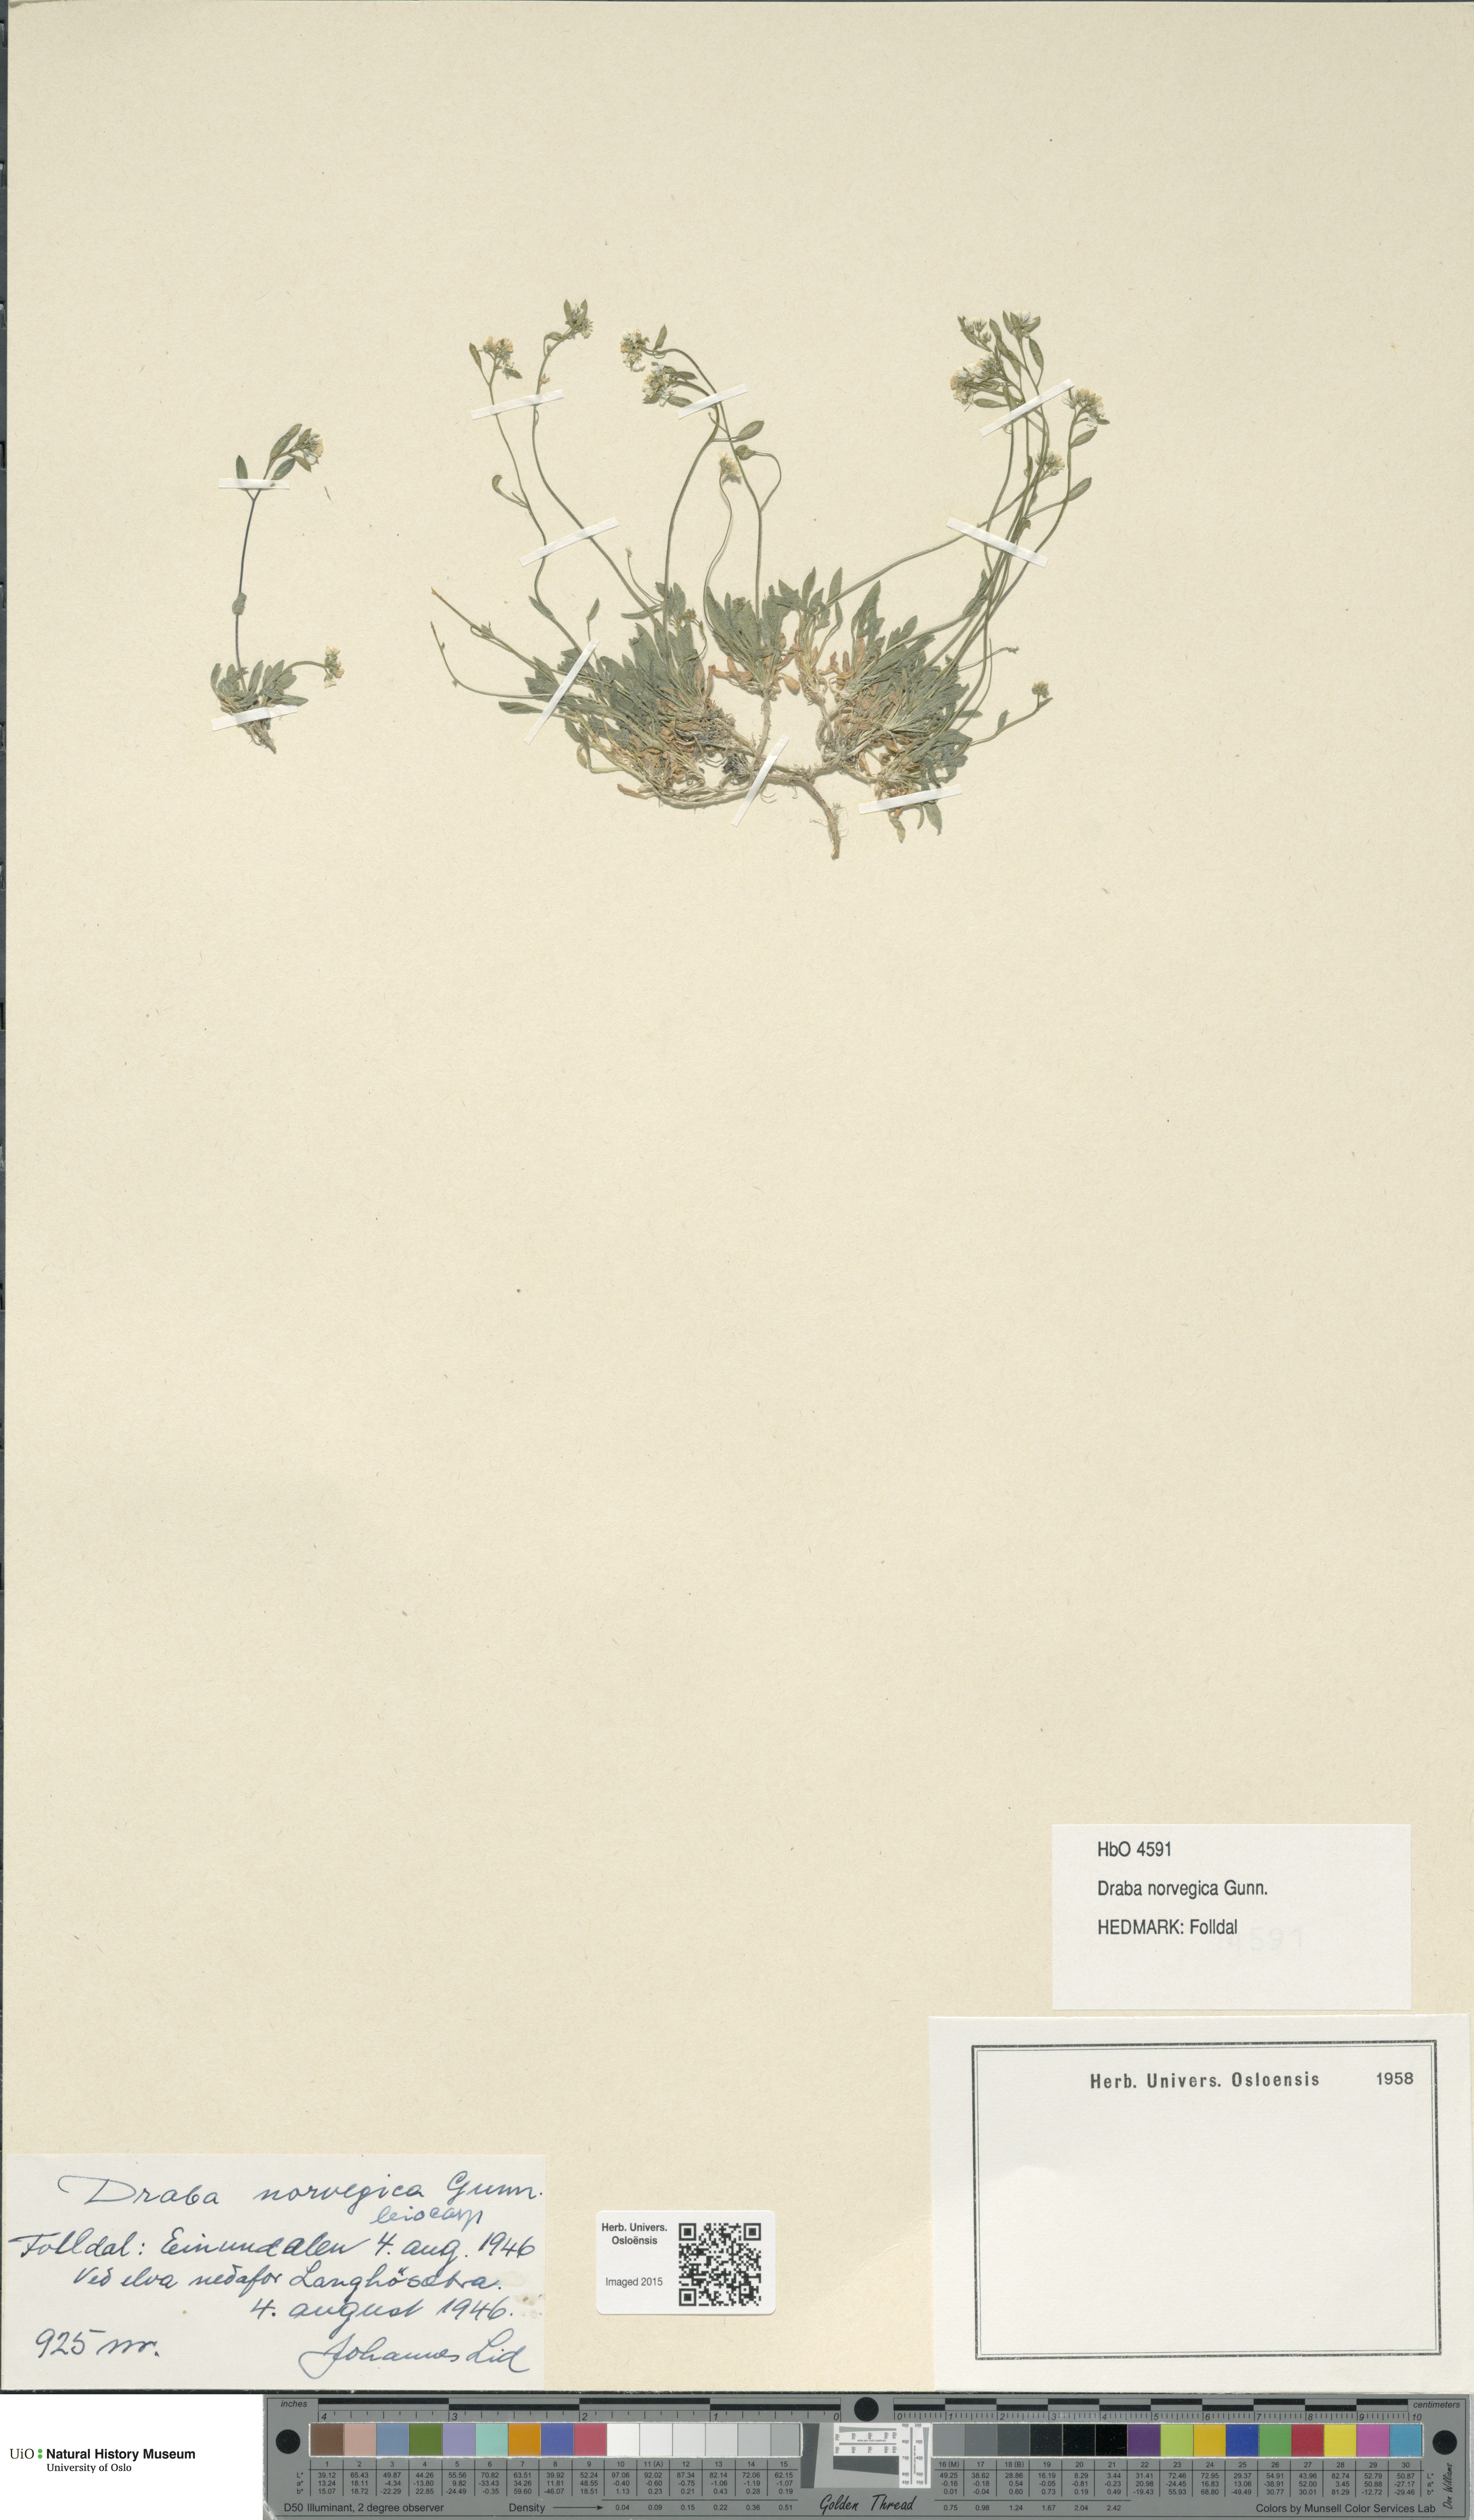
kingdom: Plantae
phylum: Tracheophyta
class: Magnoliopsida
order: Brassicales
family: Brassicaceae
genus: Draba
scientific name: Draba norvegica
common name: Rock whitlowgrass
